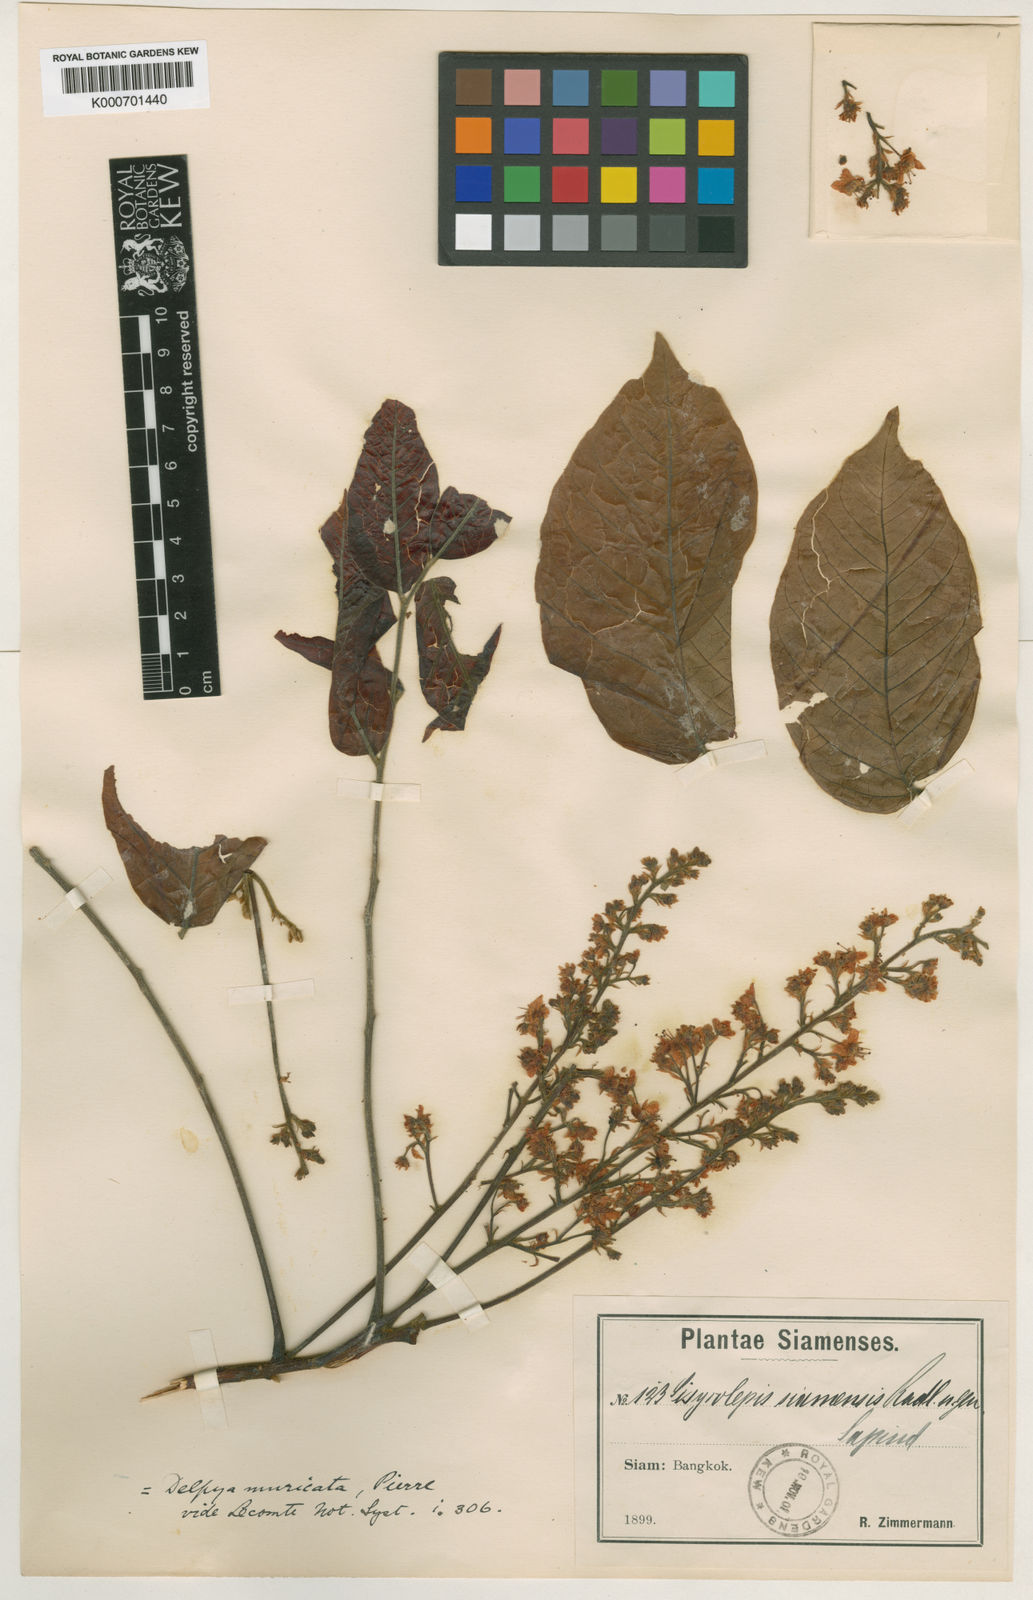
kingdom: Plantae
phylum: Tracheophyta
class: Magnoliopsida
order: Sapindales
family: Sapindaceae
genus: Sisyrolepis
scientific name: Sisyrolepis muricata
